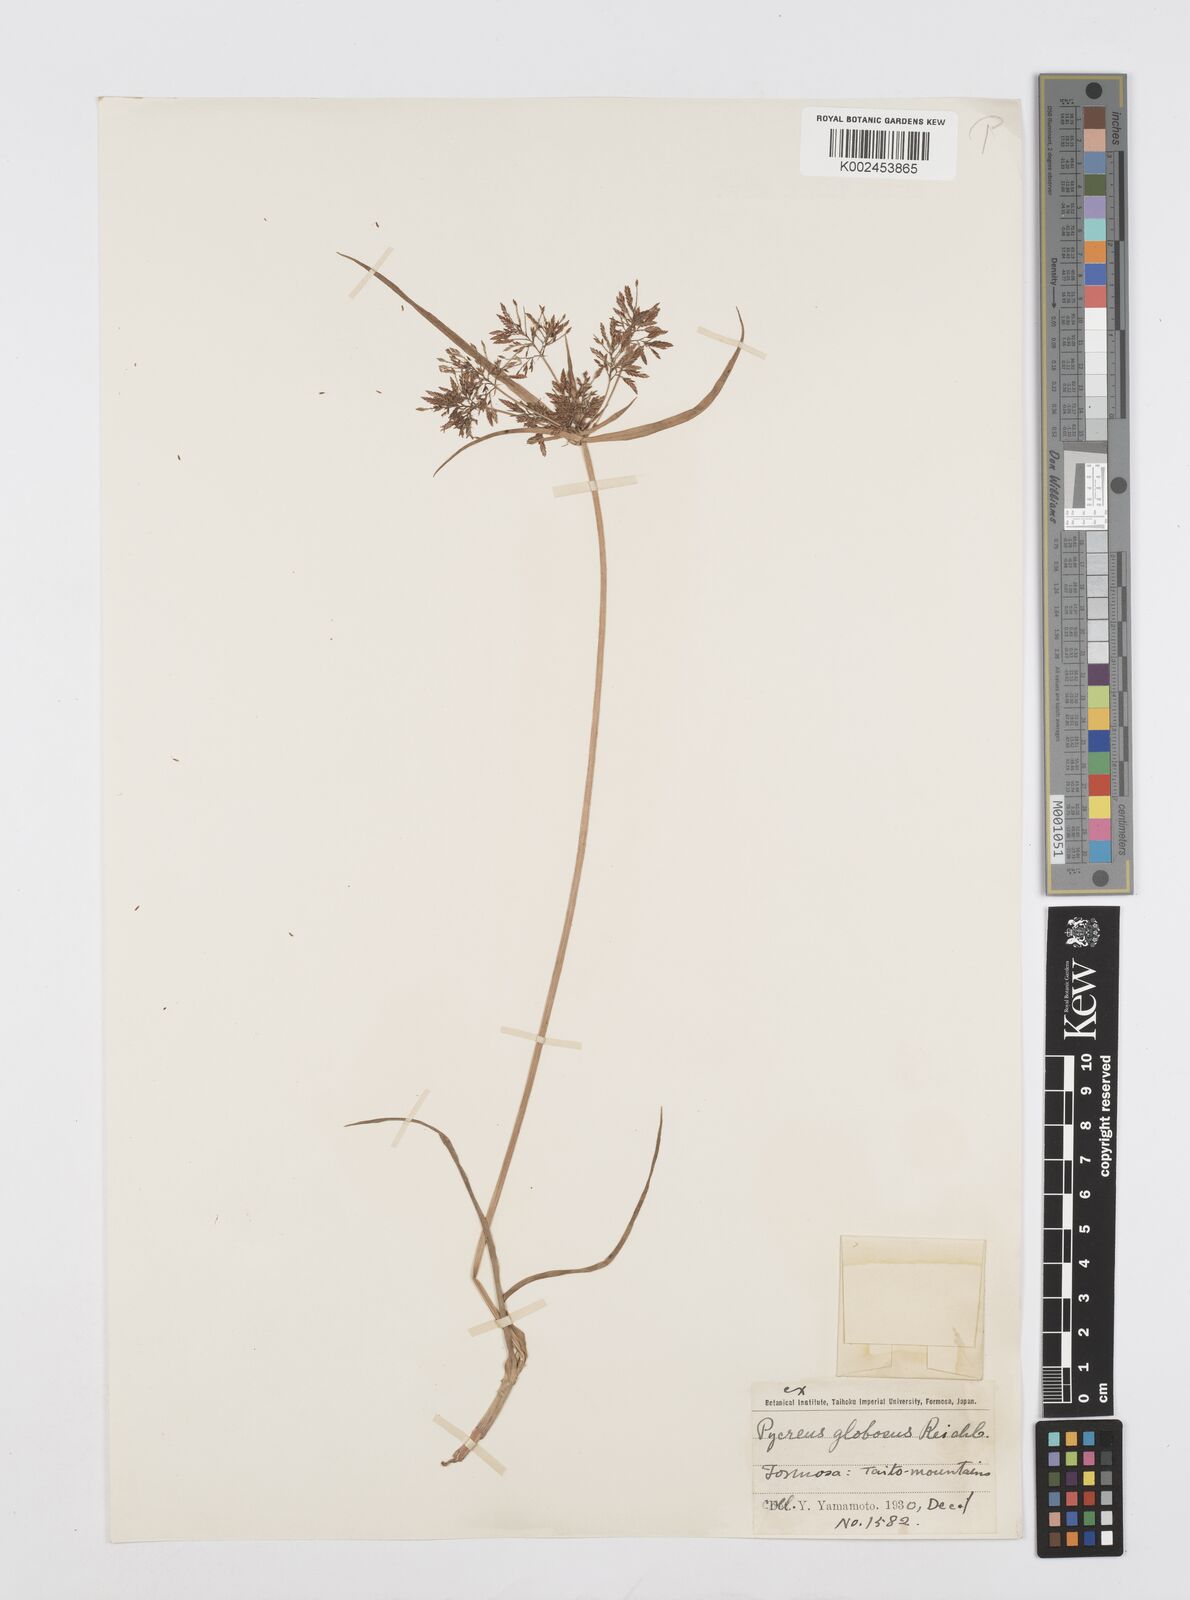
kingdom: Plantae
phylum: Tracheophyta
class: Liliopsida
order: Poales
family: Cyperaceae
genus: Cyperus
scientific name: Cyperus flavidus
